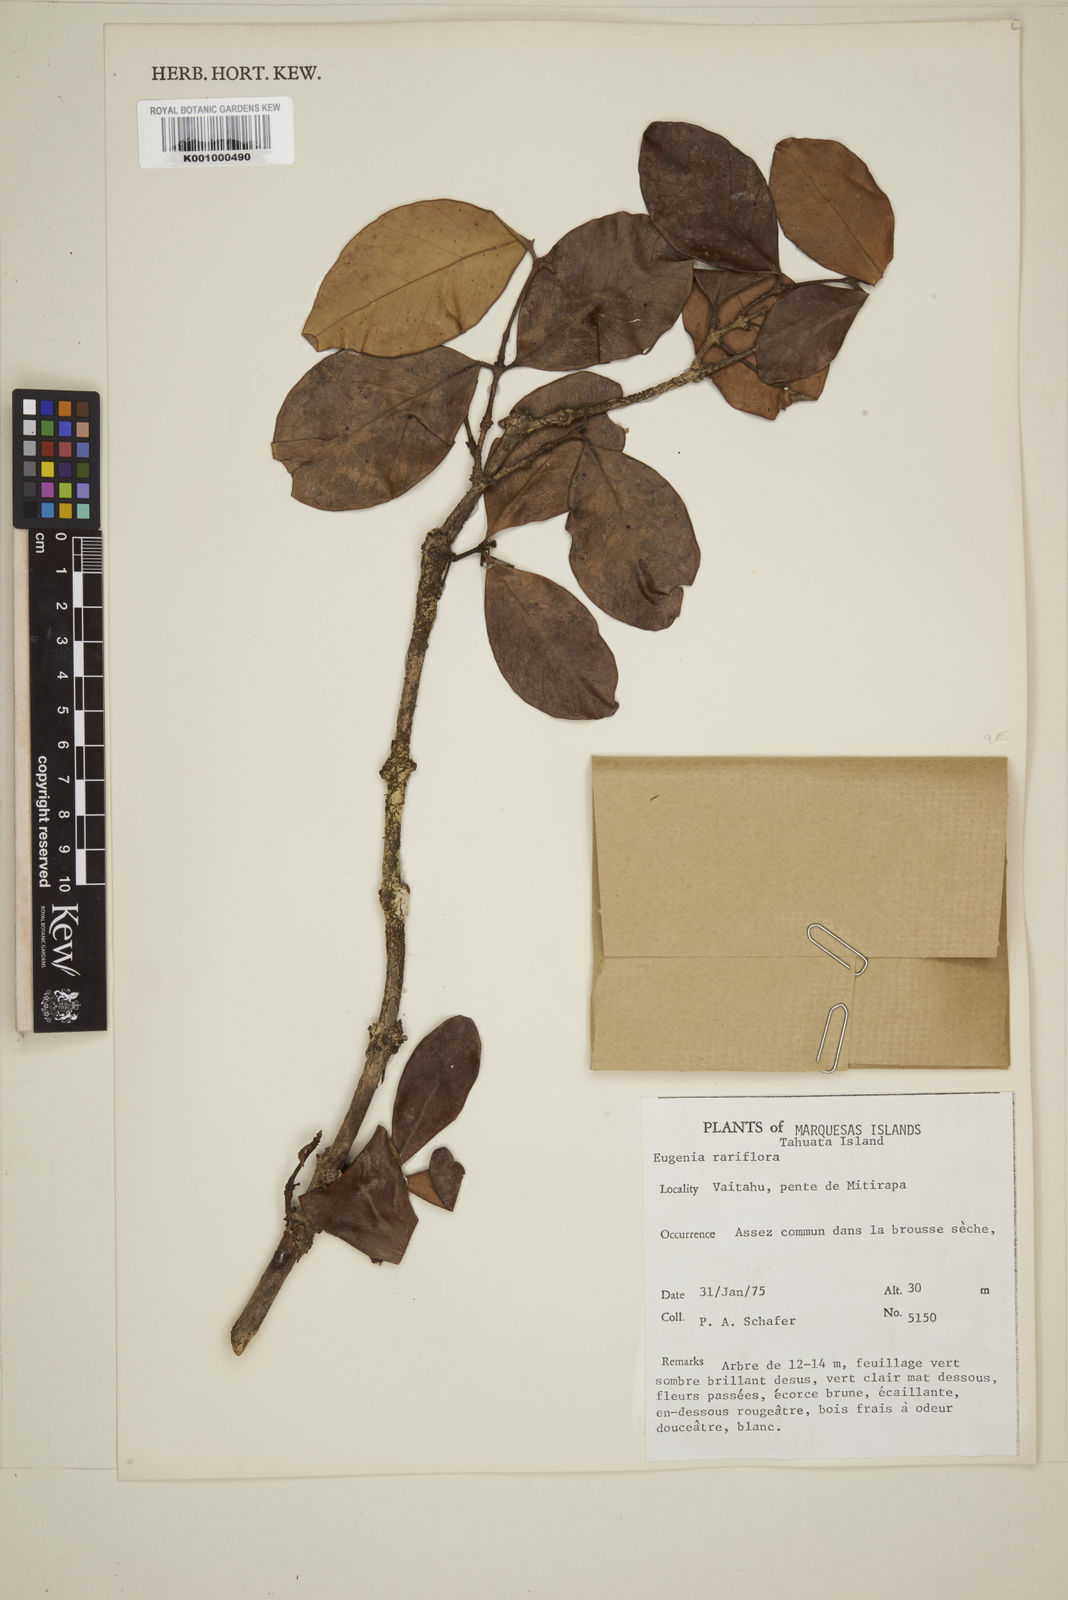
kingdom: Plantae
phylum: Tracheophyta
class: Magnoliopsida
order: Myrtales
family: Myrtaceae
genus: Eugenia
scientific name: Eugenia reinwardtiana
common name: Cedar bay-cherry
